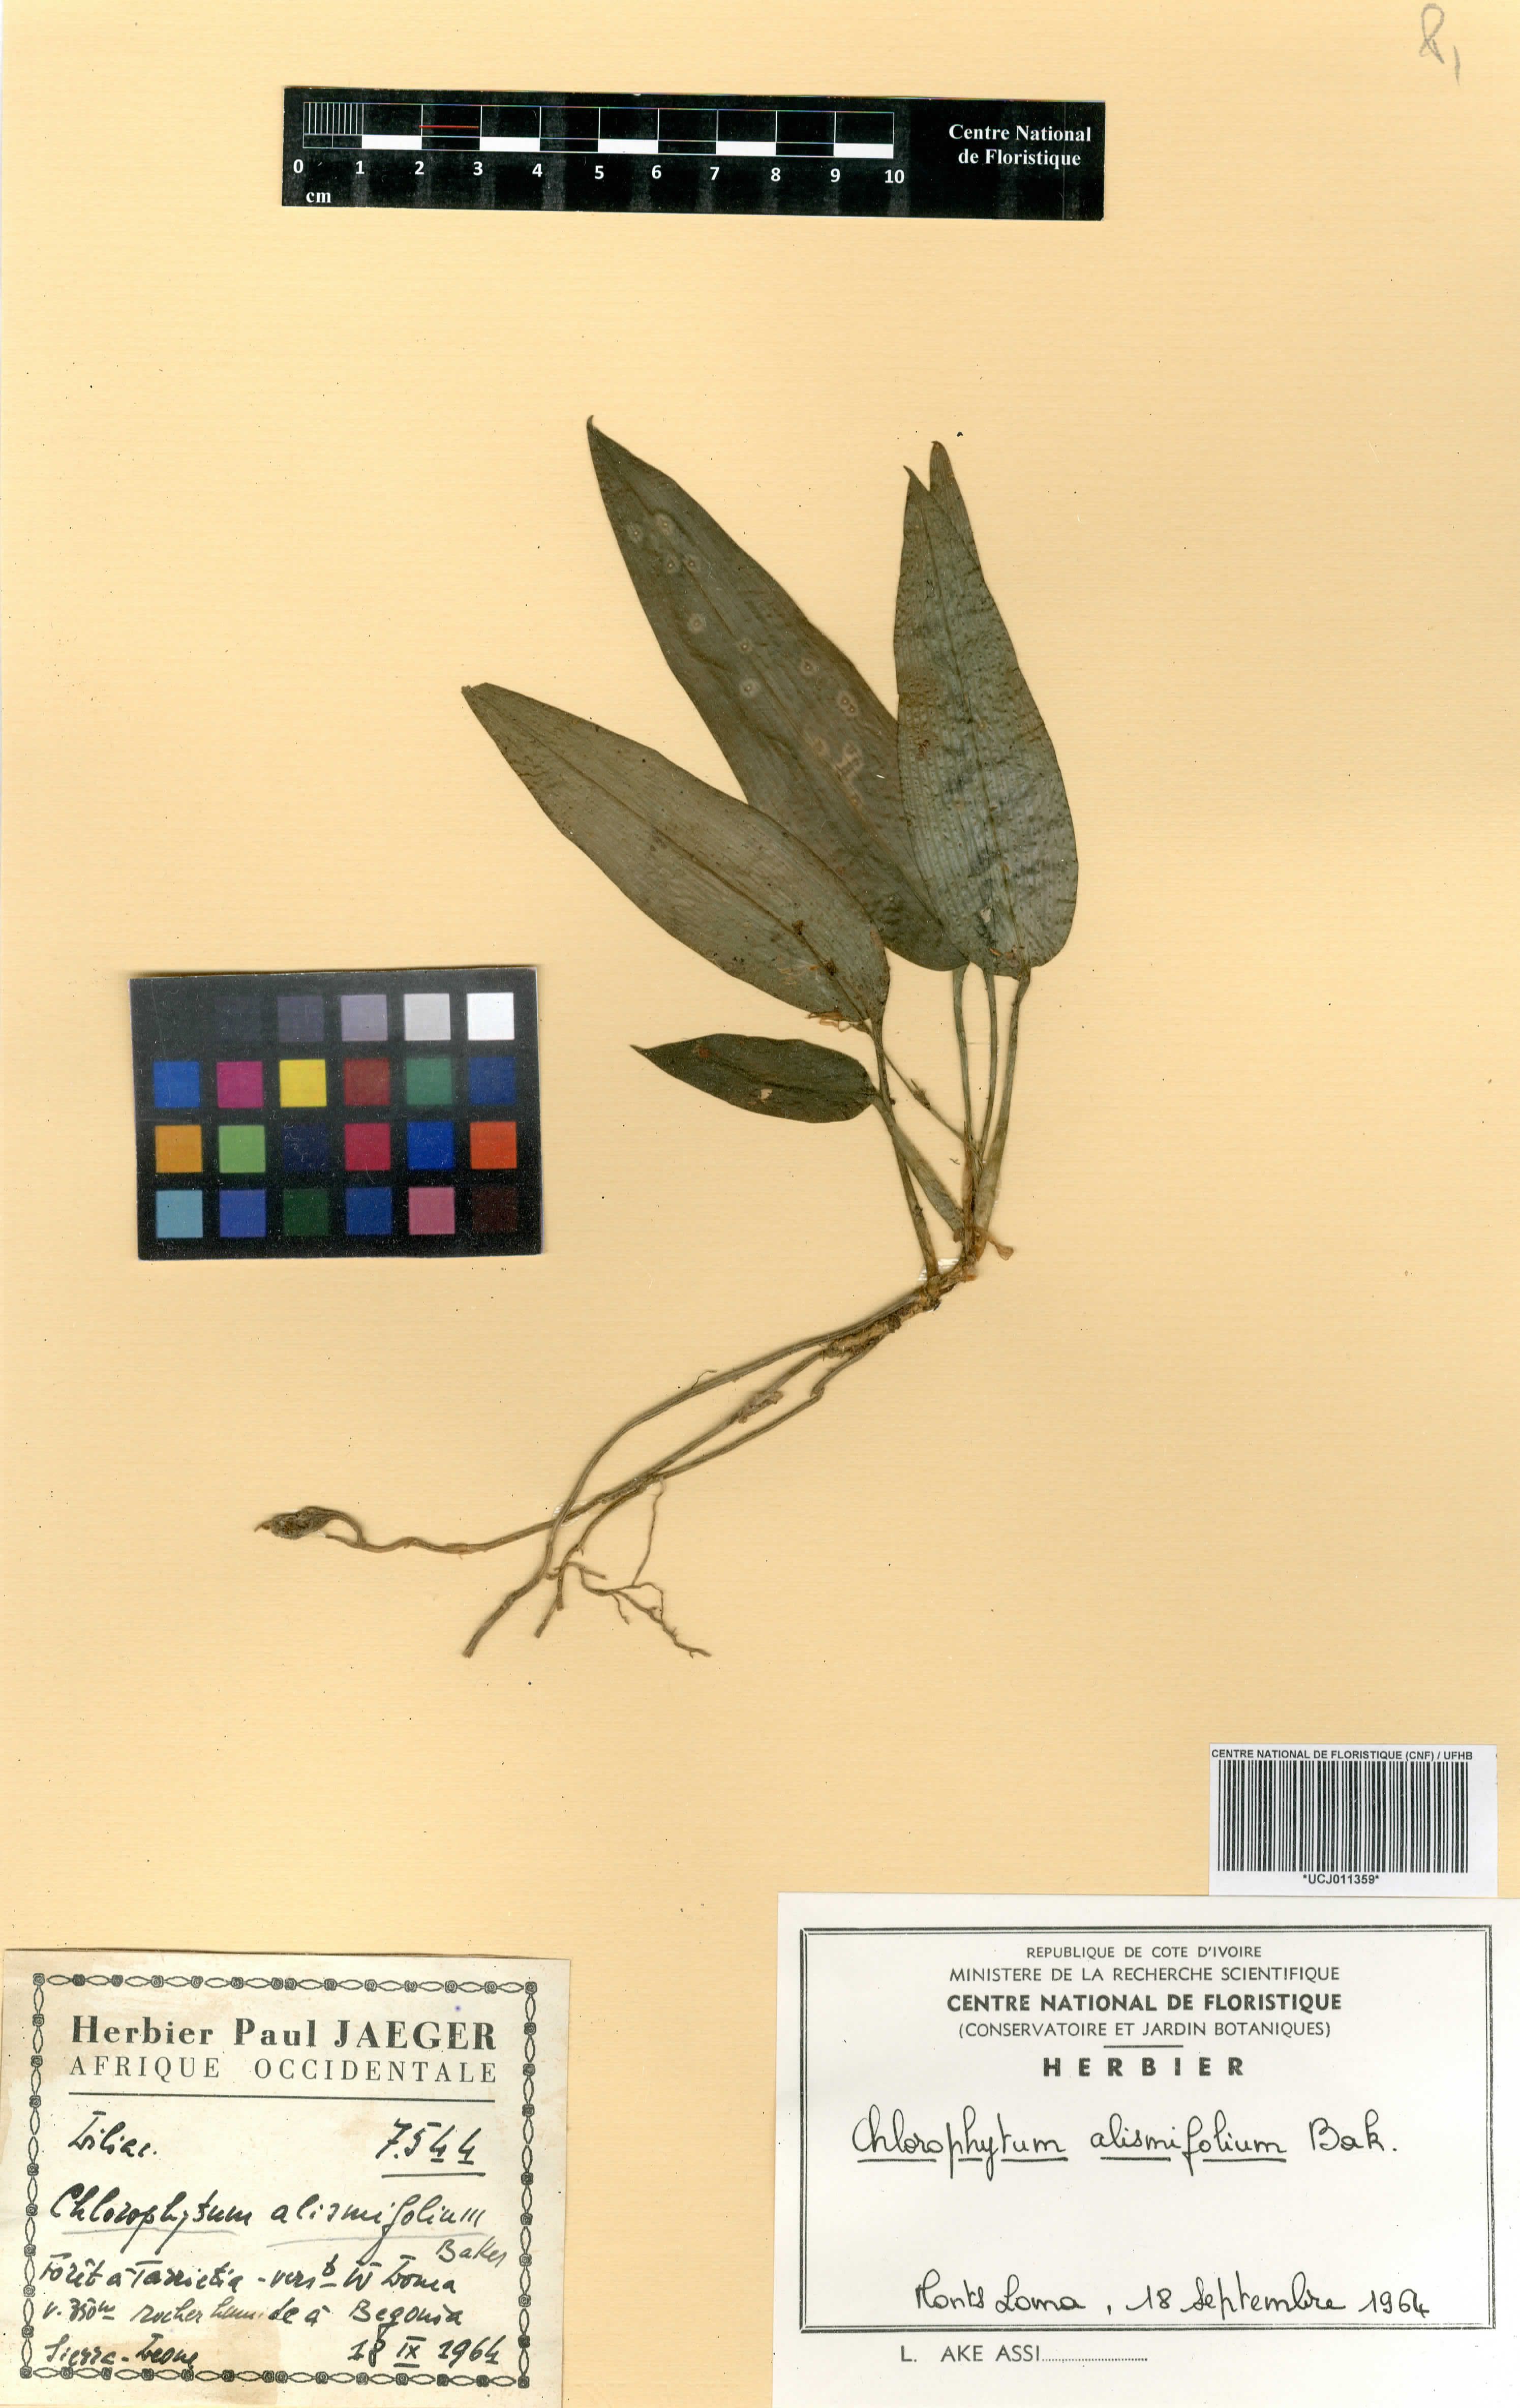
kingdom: Plantae
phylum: Tracheophyta
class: Liliopsida
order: Asparagales
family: Asparagaceae
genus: Chlorophytum
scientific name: Chlorophytum alismifolium
